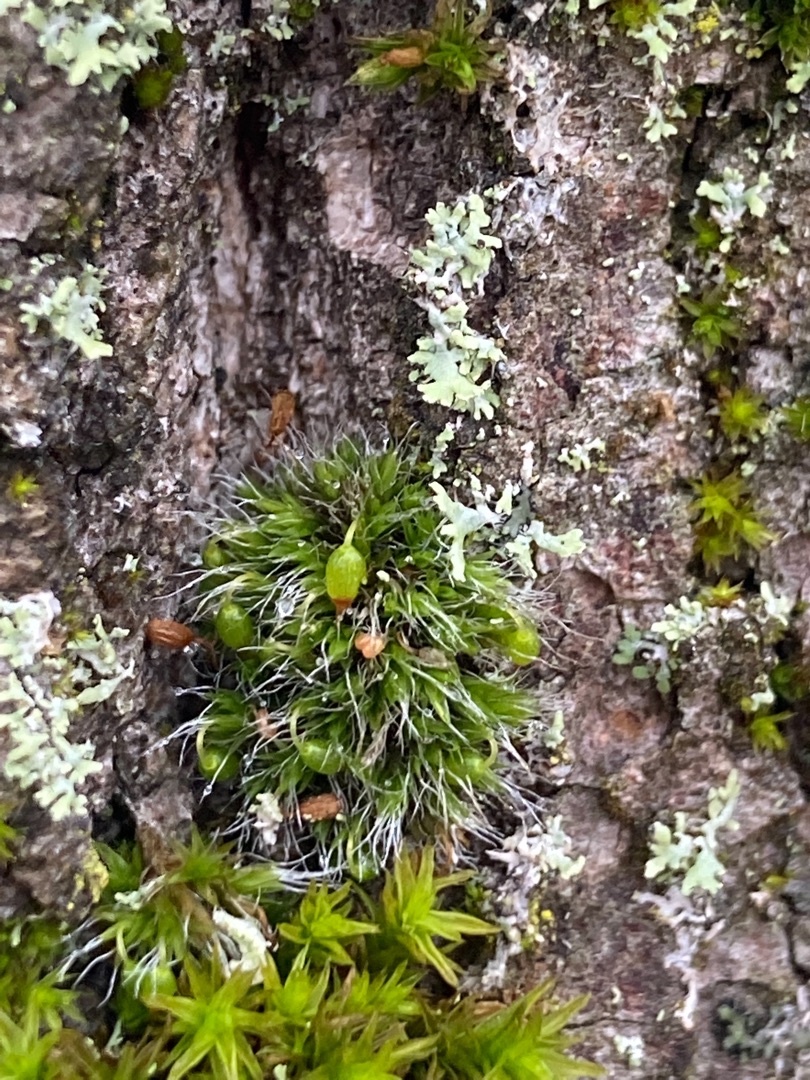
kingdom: Plantae
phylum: Bryophyta
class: Bryopsida
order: Grimmiales
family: Grimmiaceae
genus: Grimmia
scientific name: Grimmia pulvinata
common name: Pude-gråmos
